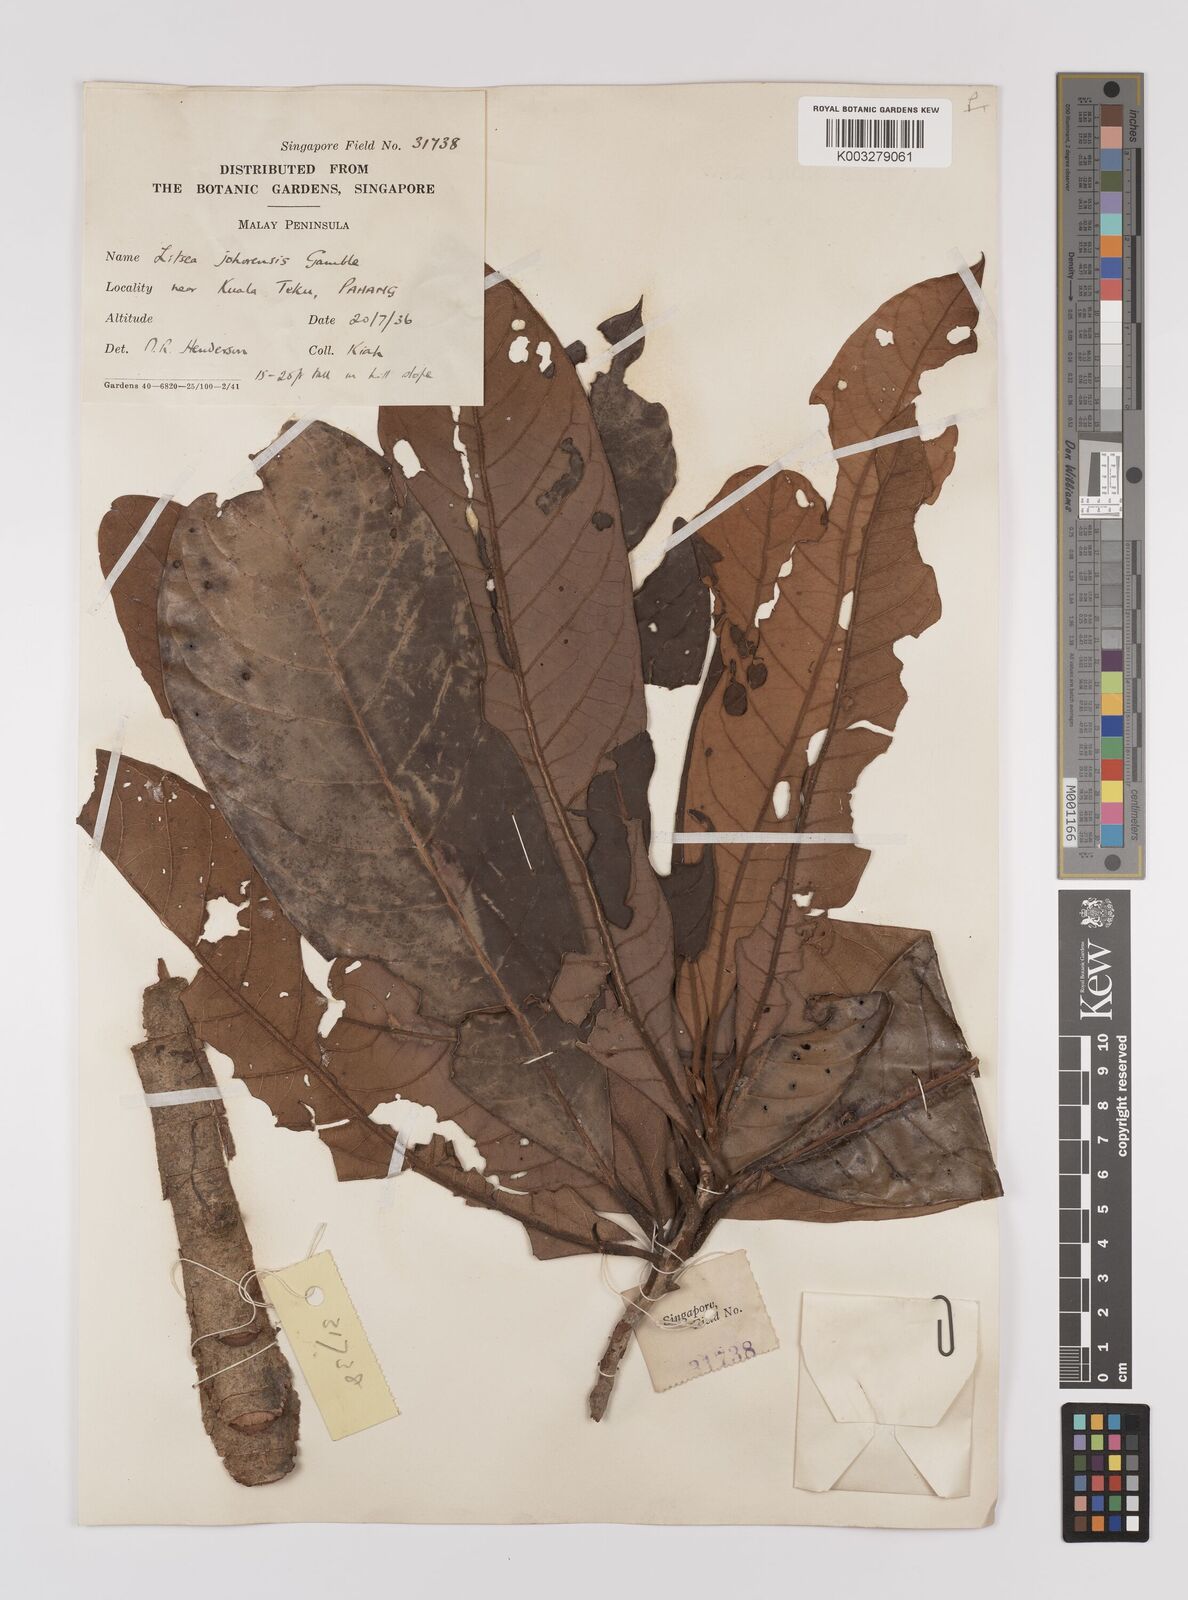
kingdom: Plantae
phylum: Tracheophyta
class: Magnoliopsida
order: Laurales
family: Lauraceae
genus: Litsea
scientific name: Litsea johorensis
